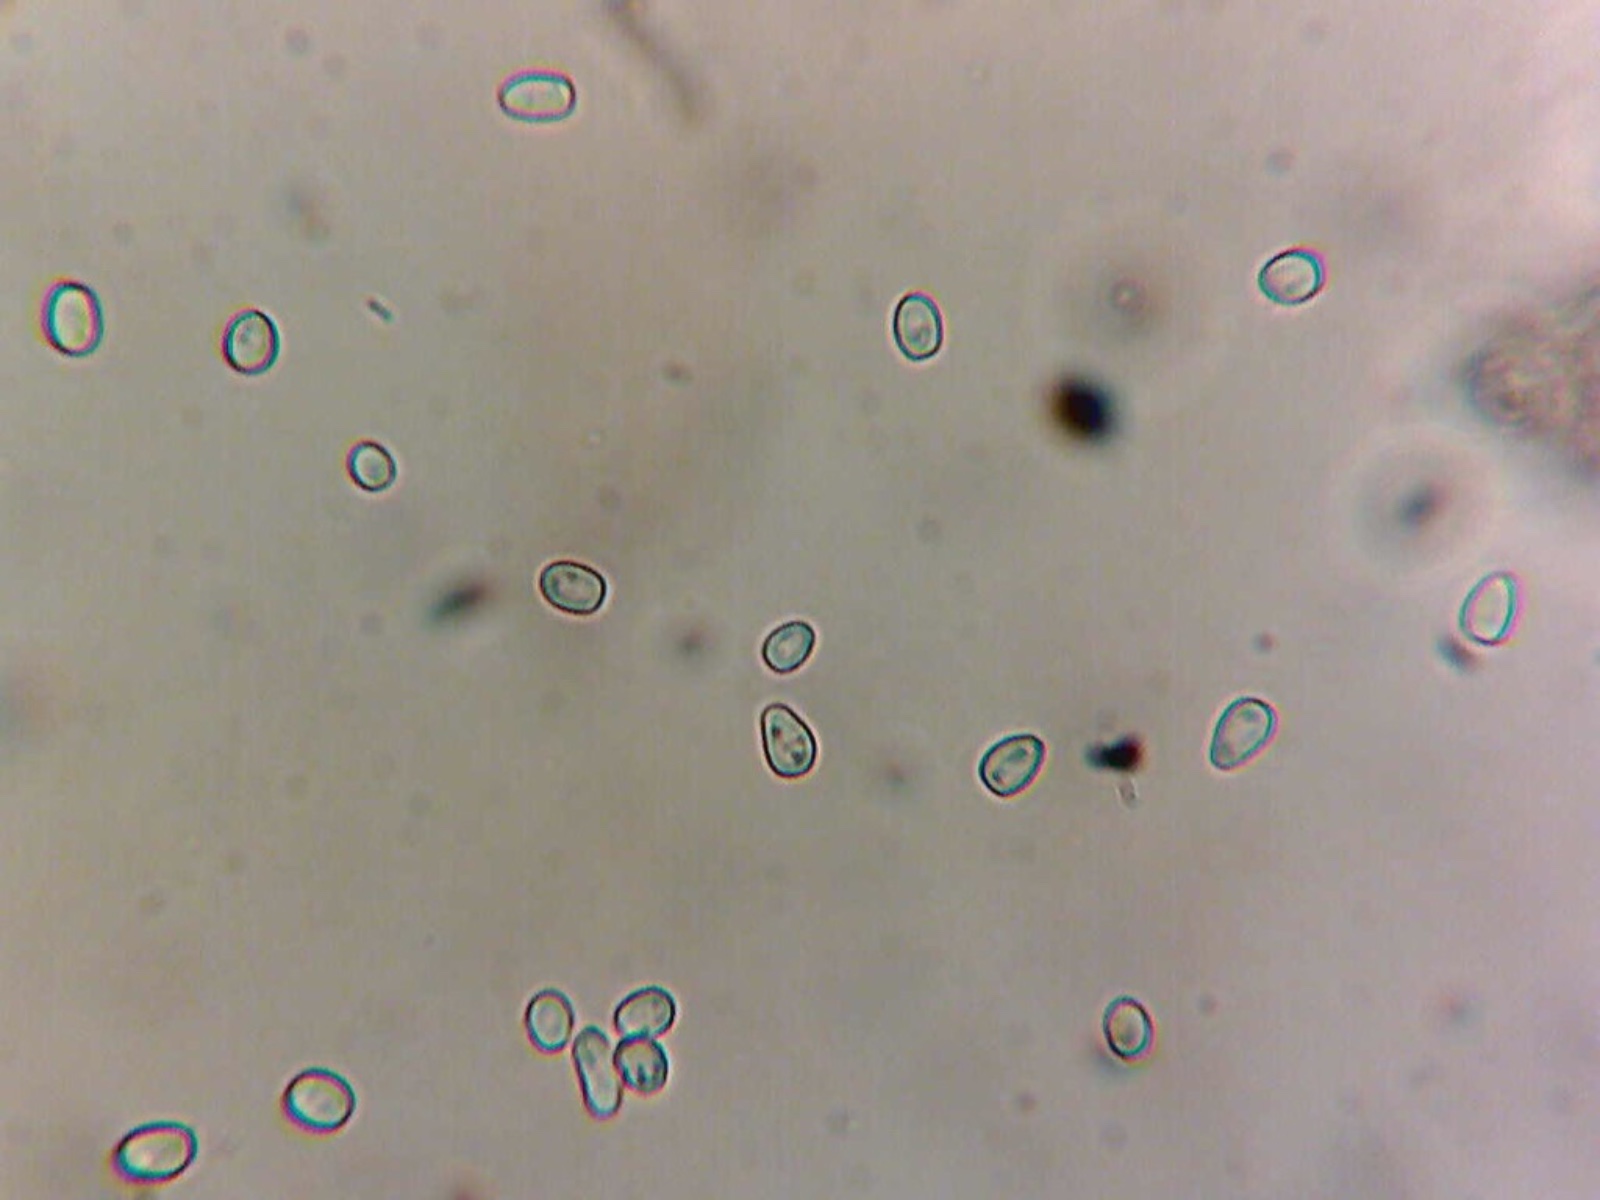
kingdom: Fungi
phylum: Ascomycota
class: Sordariomycetes
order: Hypocreales
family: Hypocreaceae
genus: Trichoderma
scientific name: Trichoderma pulvinatum
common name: snyltende kødkerne
